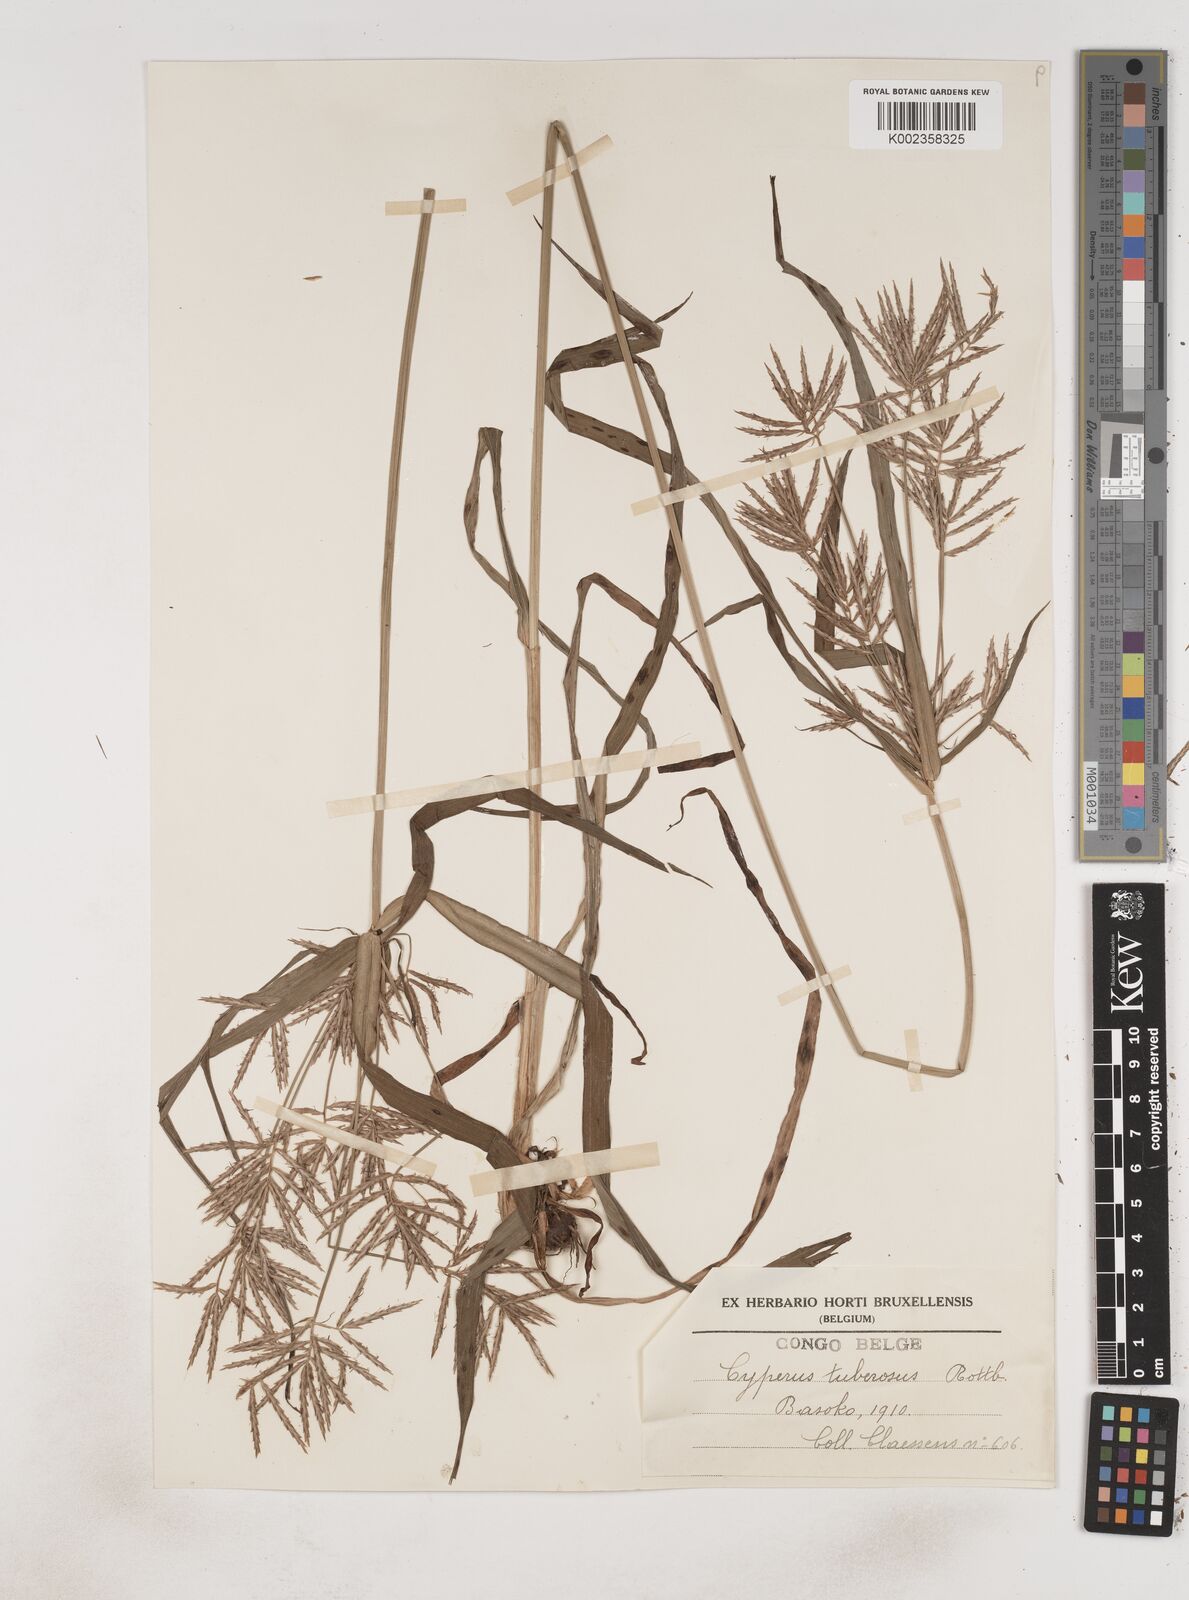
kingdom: Plantae
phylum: Tracheophyta
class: Liliopsida
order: Poales
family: Cyperaceae
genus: Cyperus
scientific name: Cyperus tuberosus
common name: Nut grass
